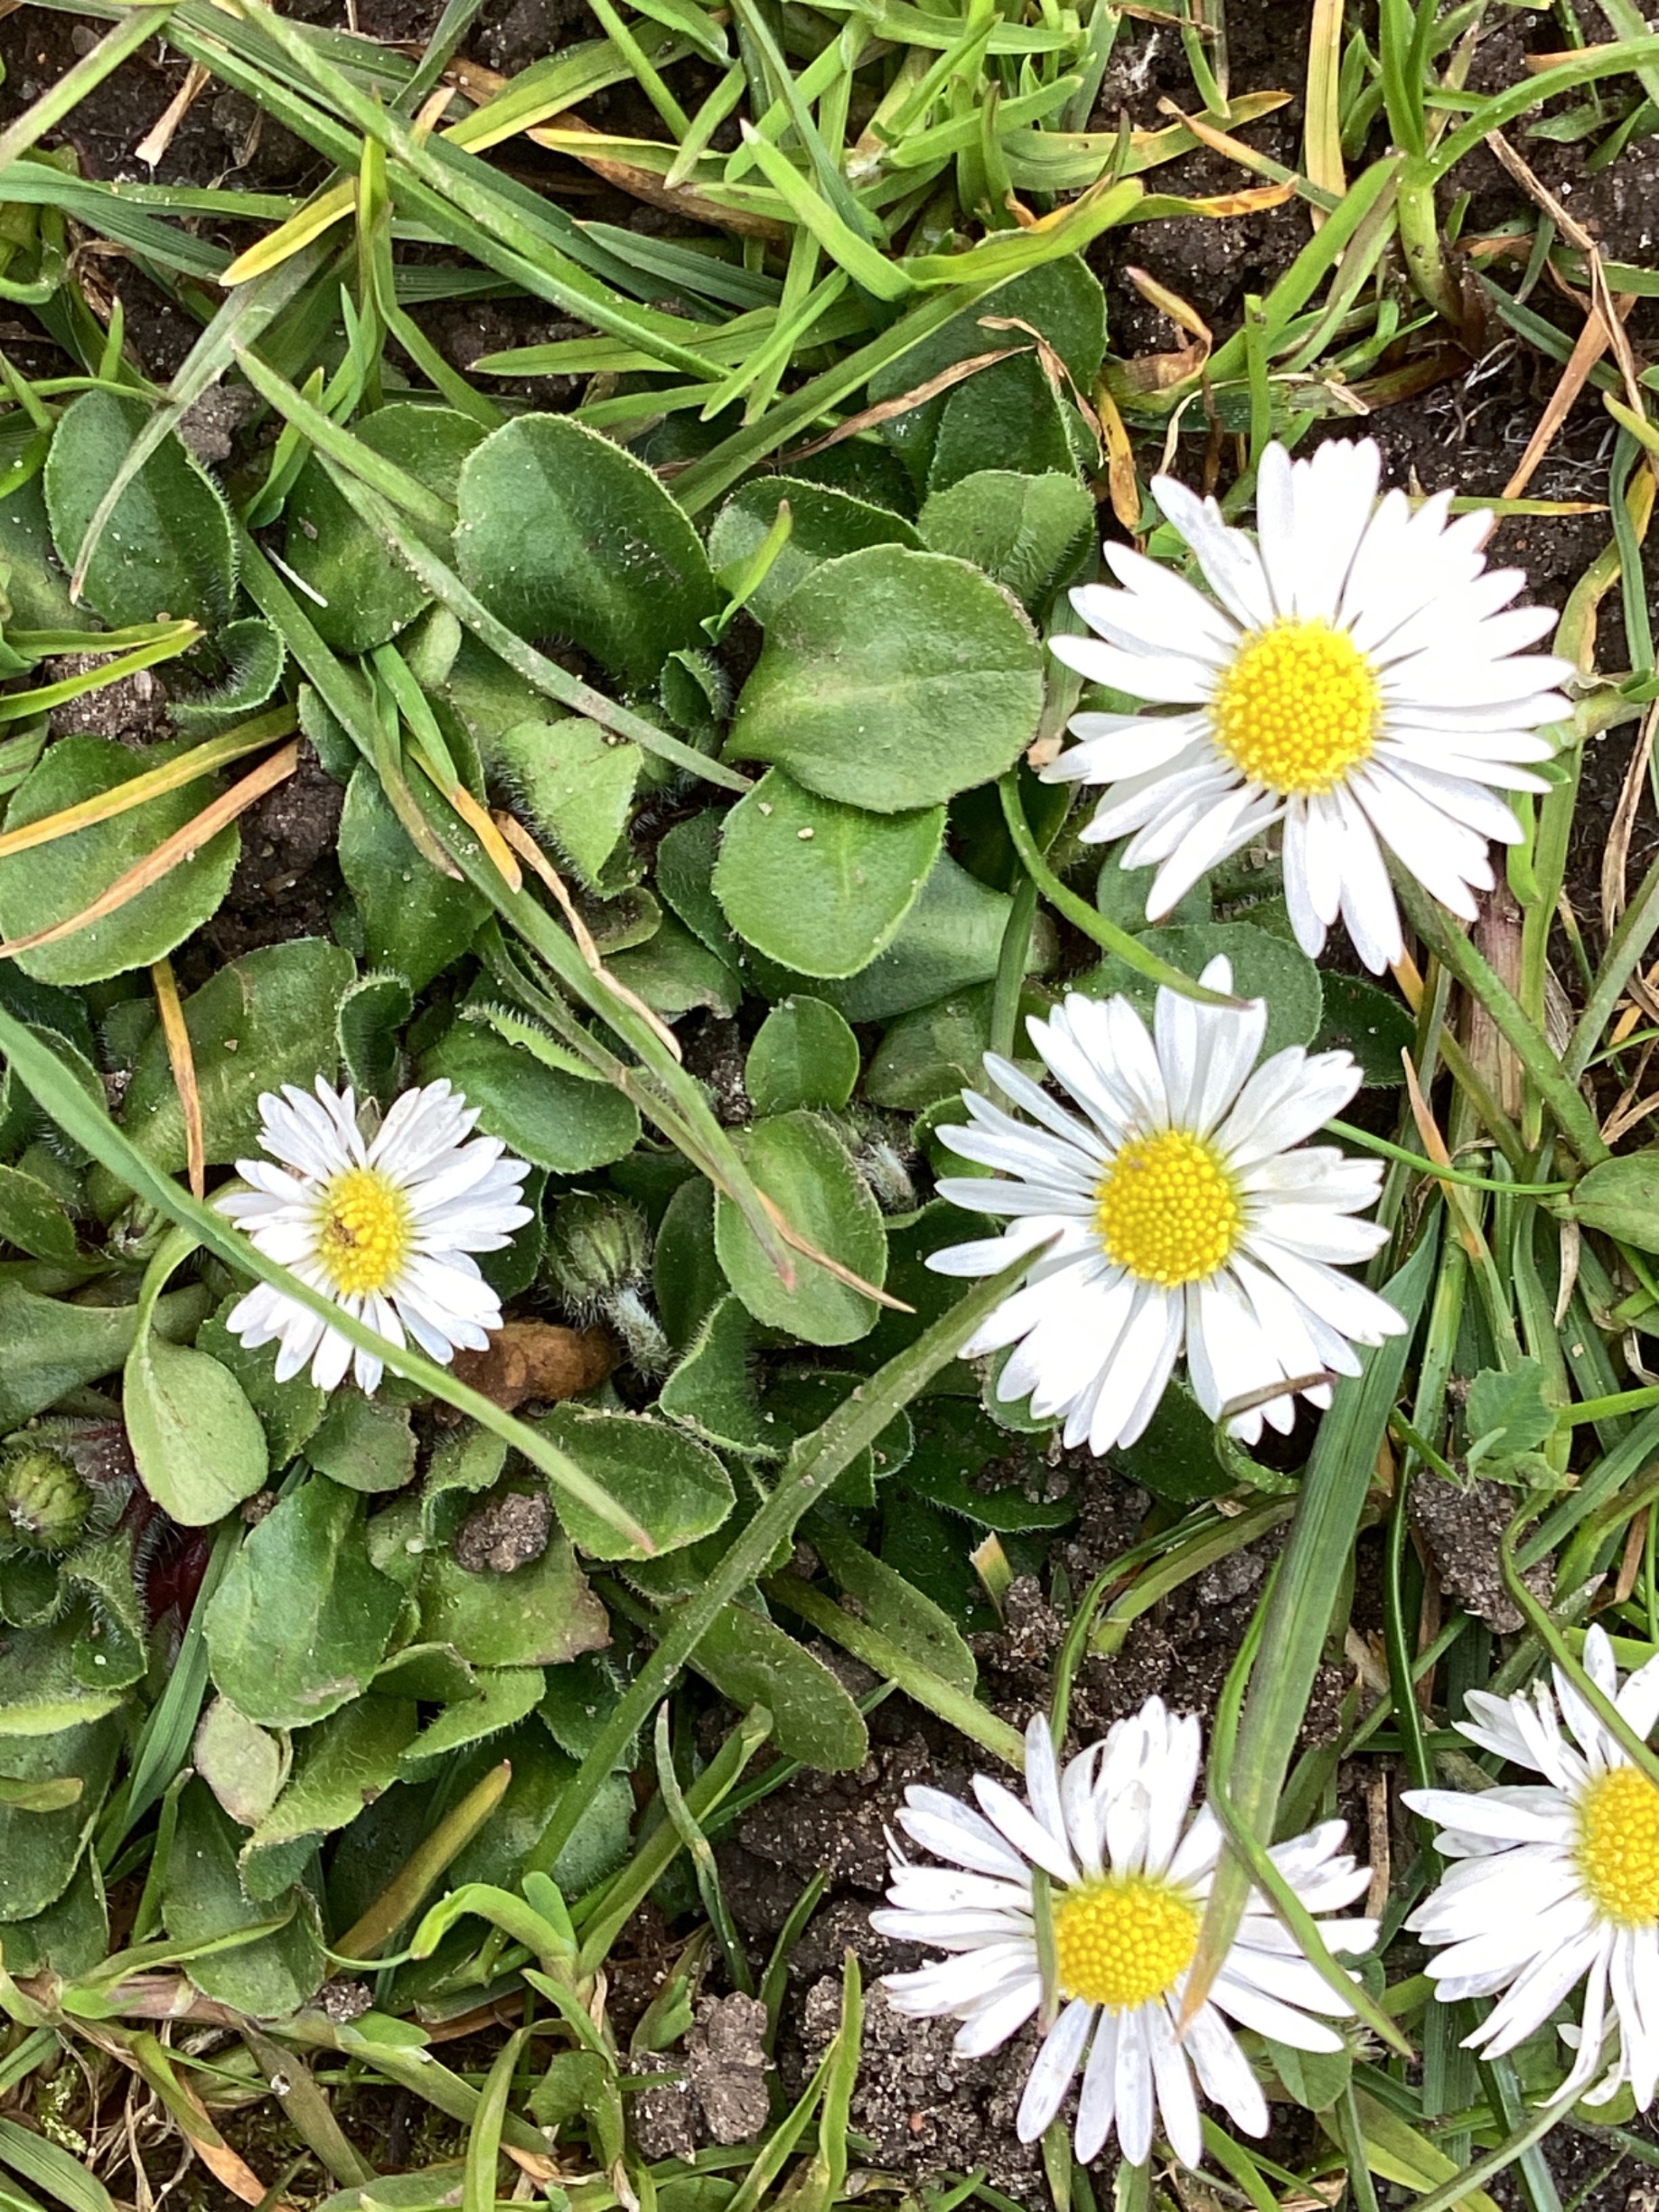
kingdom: Plantae
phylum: Tracheophyta
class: Magnoliopsida
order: Asterales
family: Asteraceae
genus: Bellis
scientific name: Bellis perennis
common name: Tusindfryd
